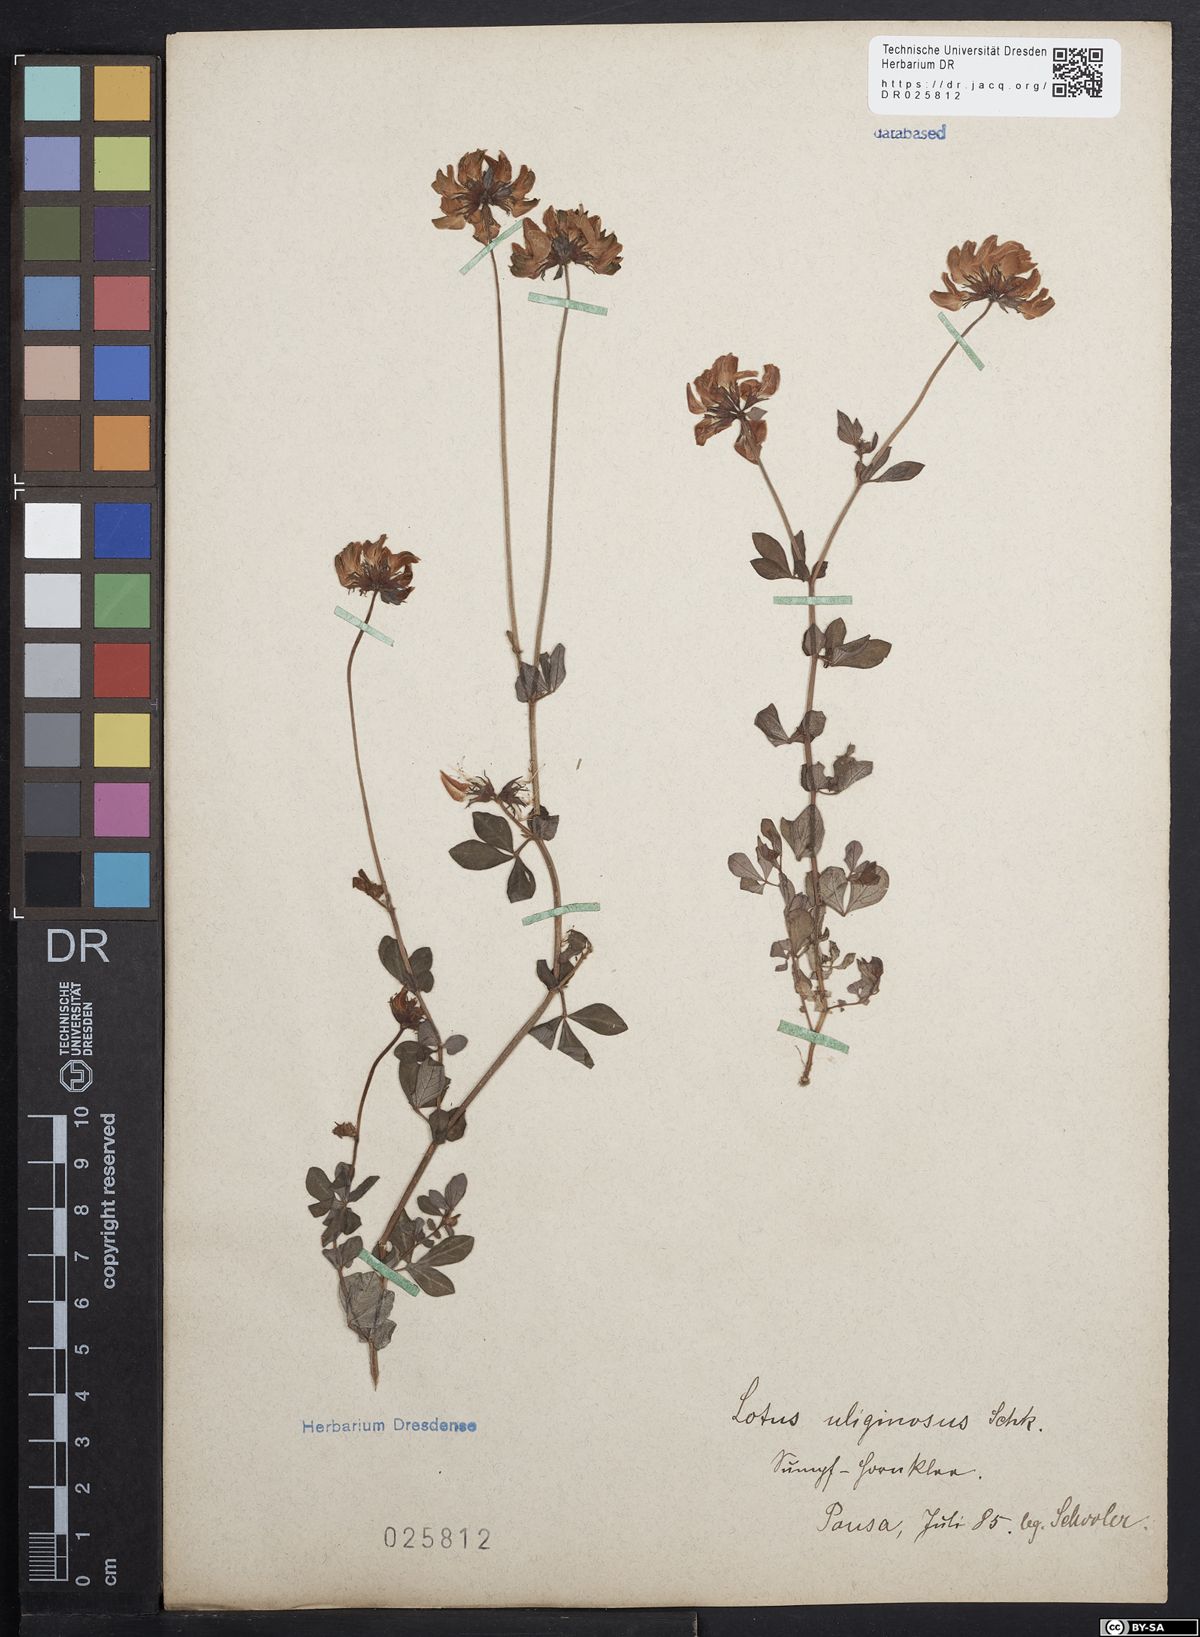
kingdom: Plantae
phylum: Tracheophyta
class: Magnoliopsida
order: Fabales
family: Fabaceae
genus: Lotus
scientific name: Lotus pedunculatus
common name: Greater birdsfoot-trefoil
